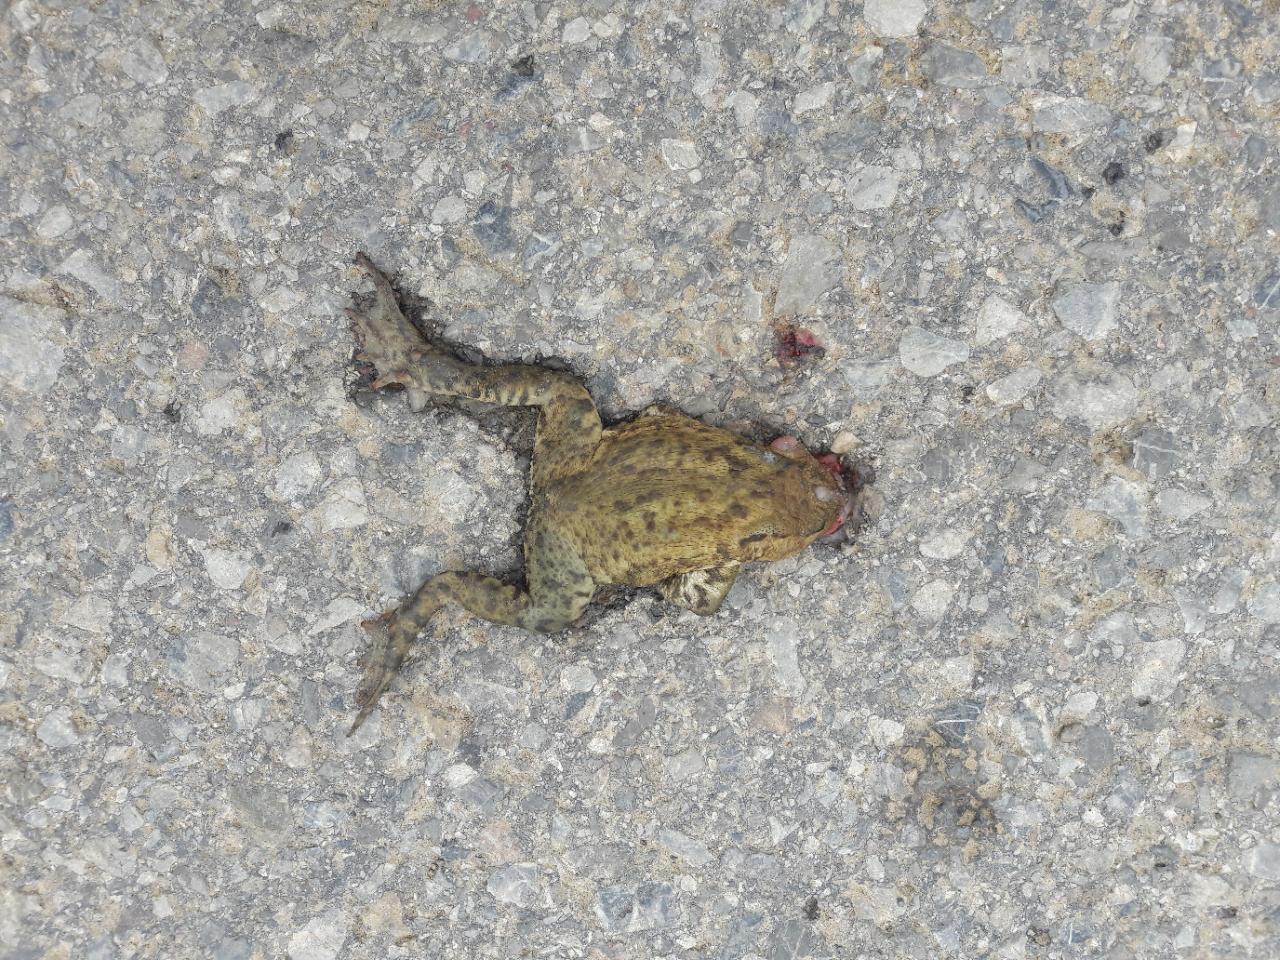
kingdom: Animalia
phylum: Chordata
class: Amphibia
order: Anura
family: Bufonidae
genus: Bufo
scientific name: Bufo bufo
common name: Common toad
